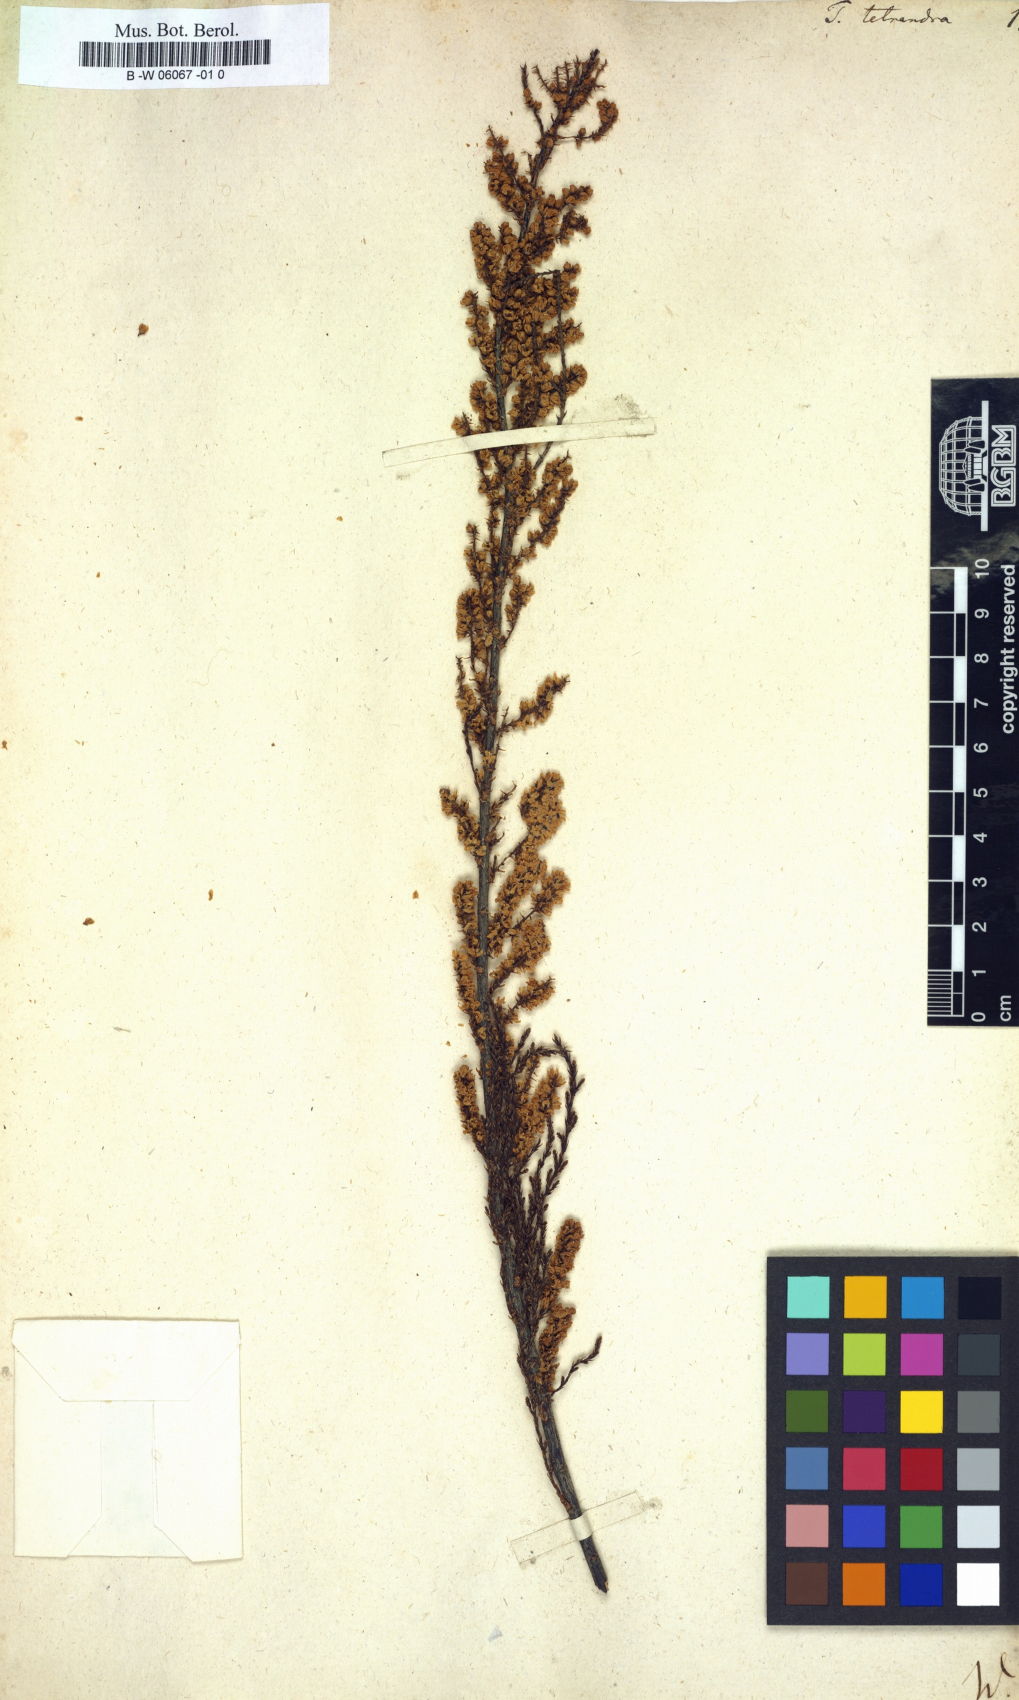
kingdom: Plantae
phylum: Tracheophyta
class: Magnoliopsida
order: Caryophyllales
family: Tamaricaceae
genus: Tamarix
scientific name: Tamarix tetrandra
